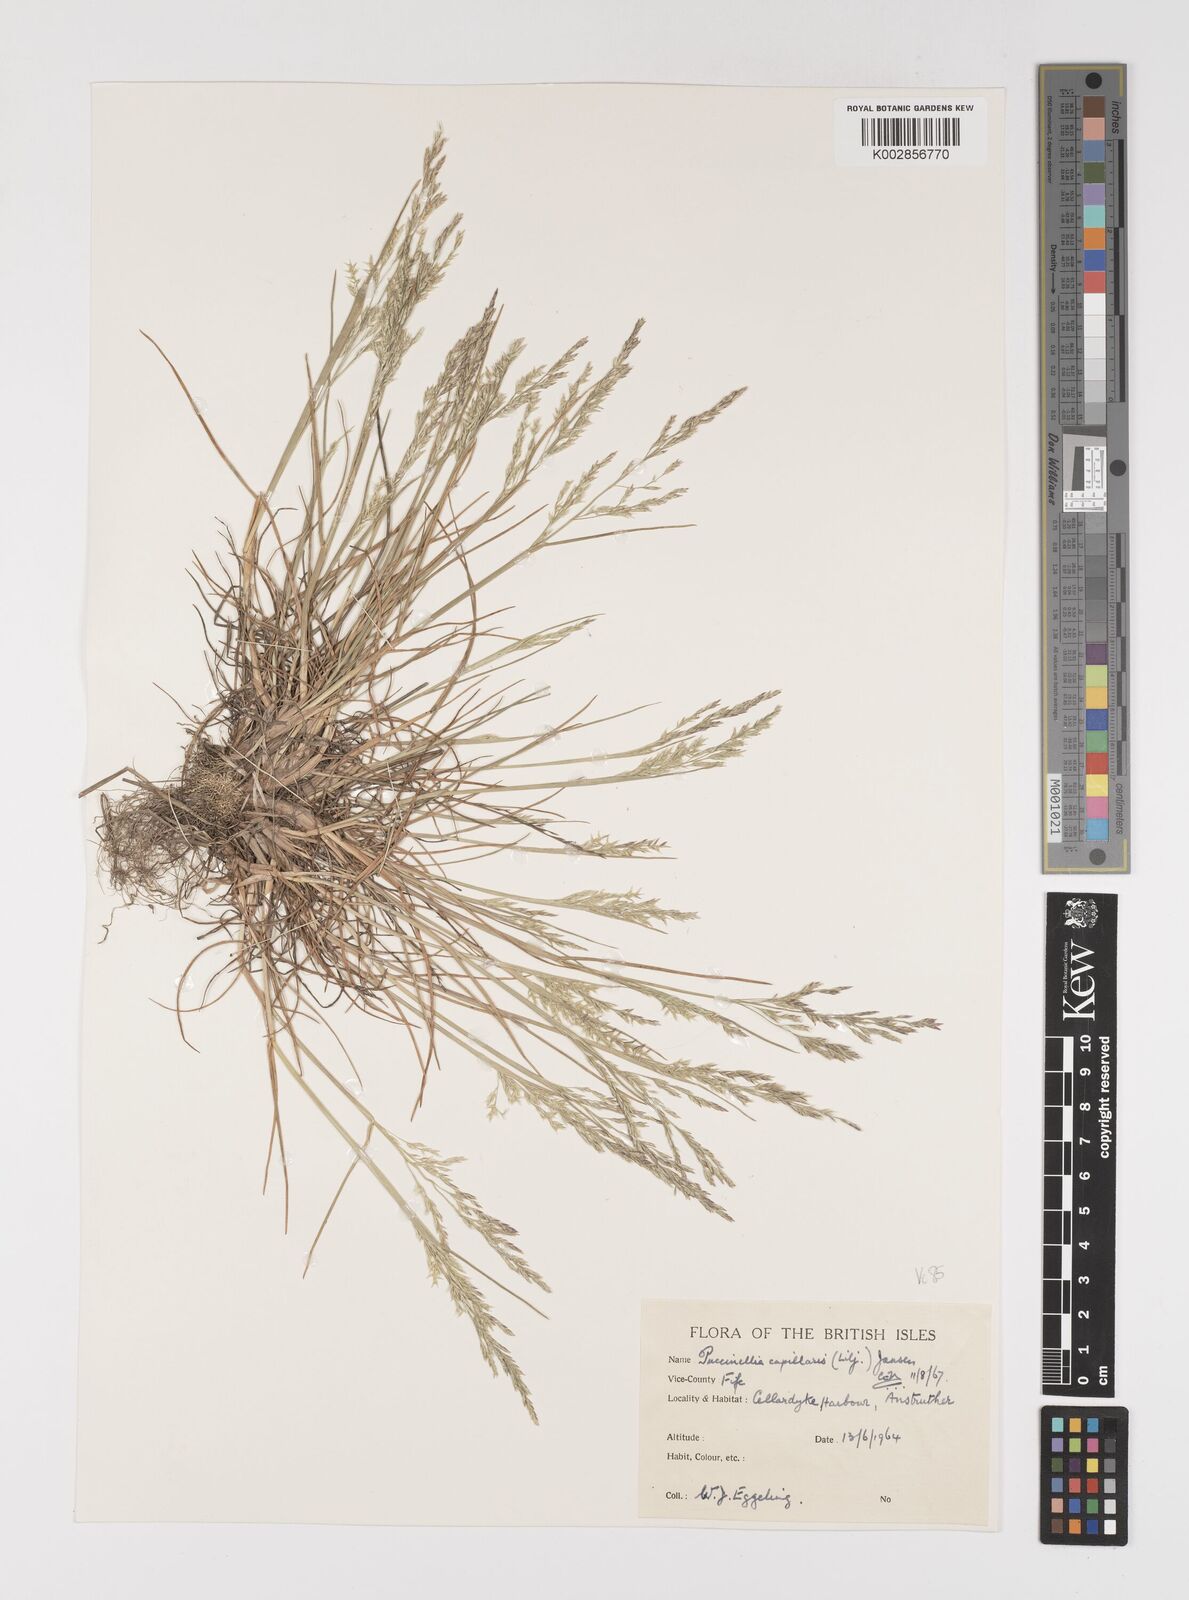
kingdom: Plantae
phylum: Tracheophyta
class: Liliopsida
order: Poales
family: Poaceae
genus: Puccinellia
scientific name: Puccinellia distans
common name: Weeping alkaligrass
